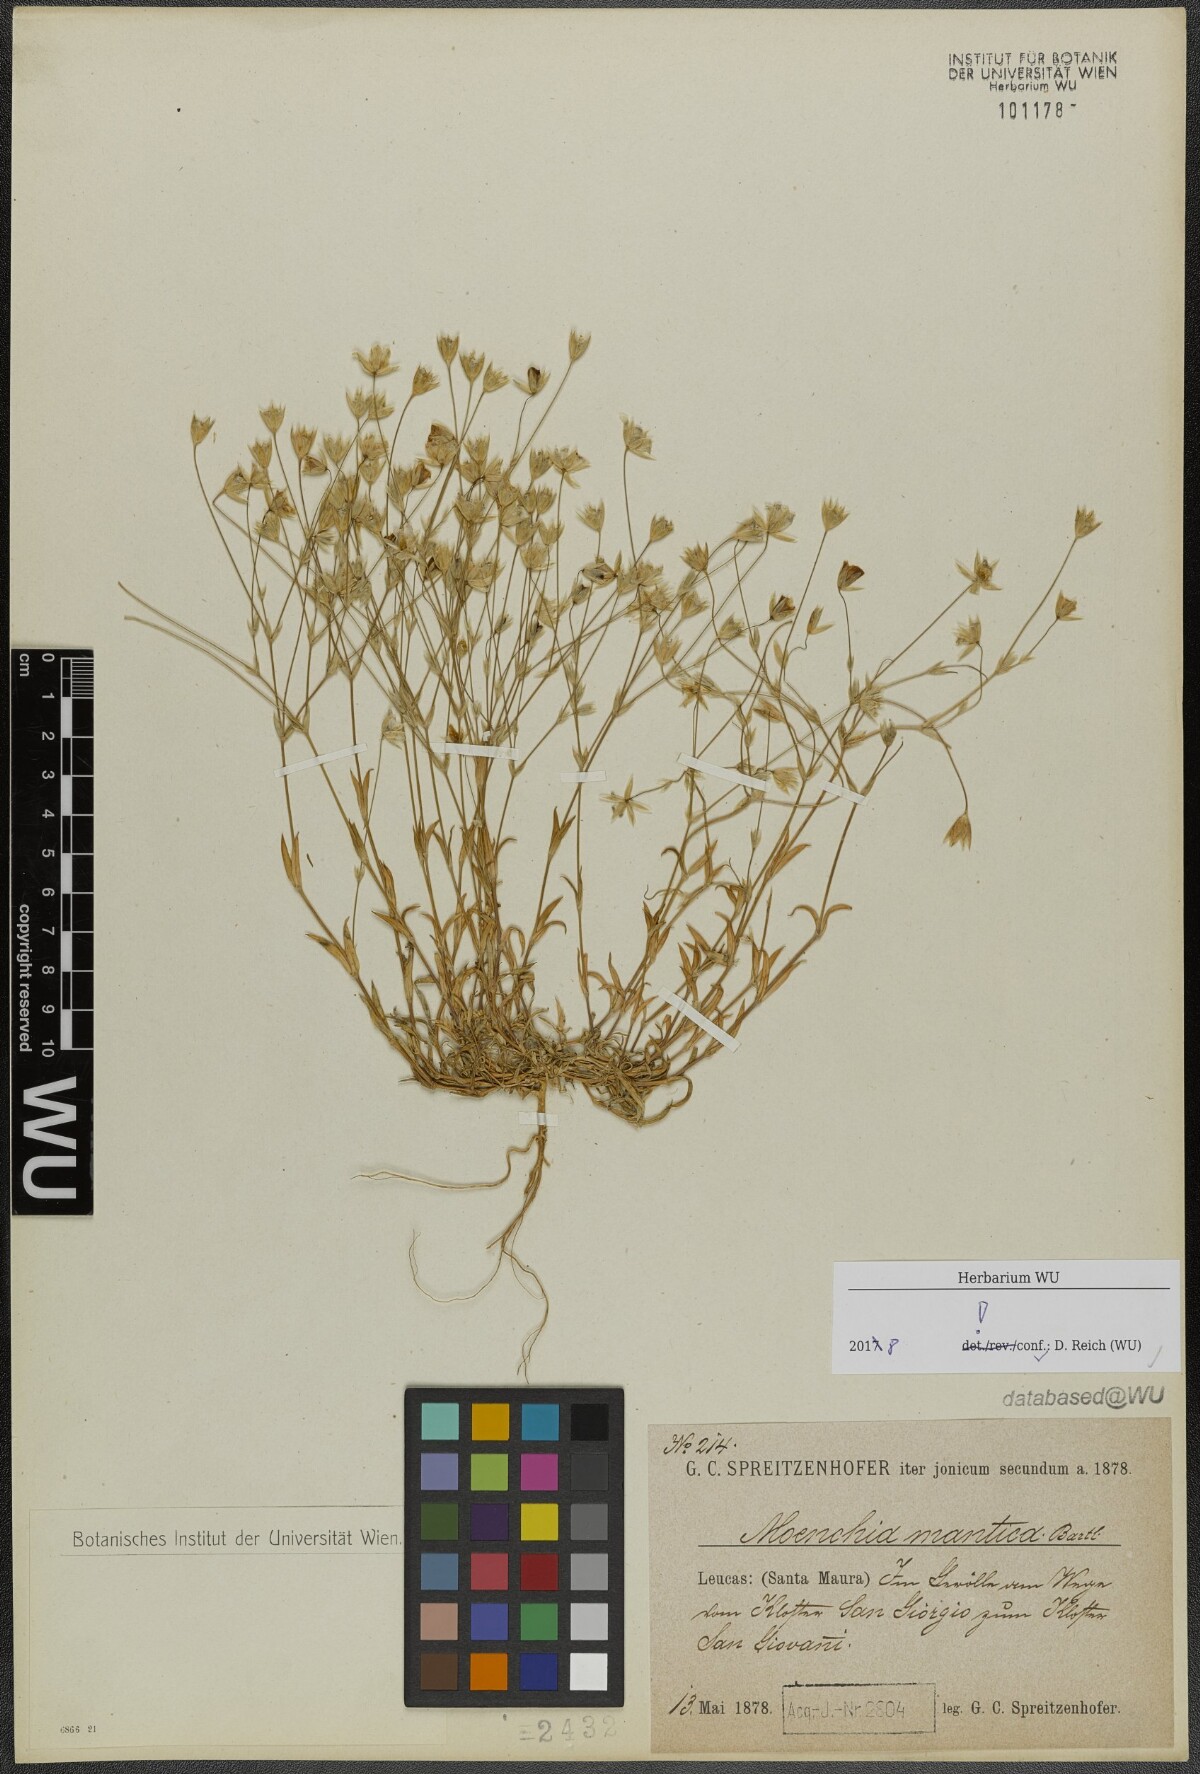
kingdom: Plantae
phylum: Tracheophyta
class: Magnoliopsida
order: Caryophyllales
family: Caryophyllaceae
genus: Moenchia
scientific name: Moenchia mantica
